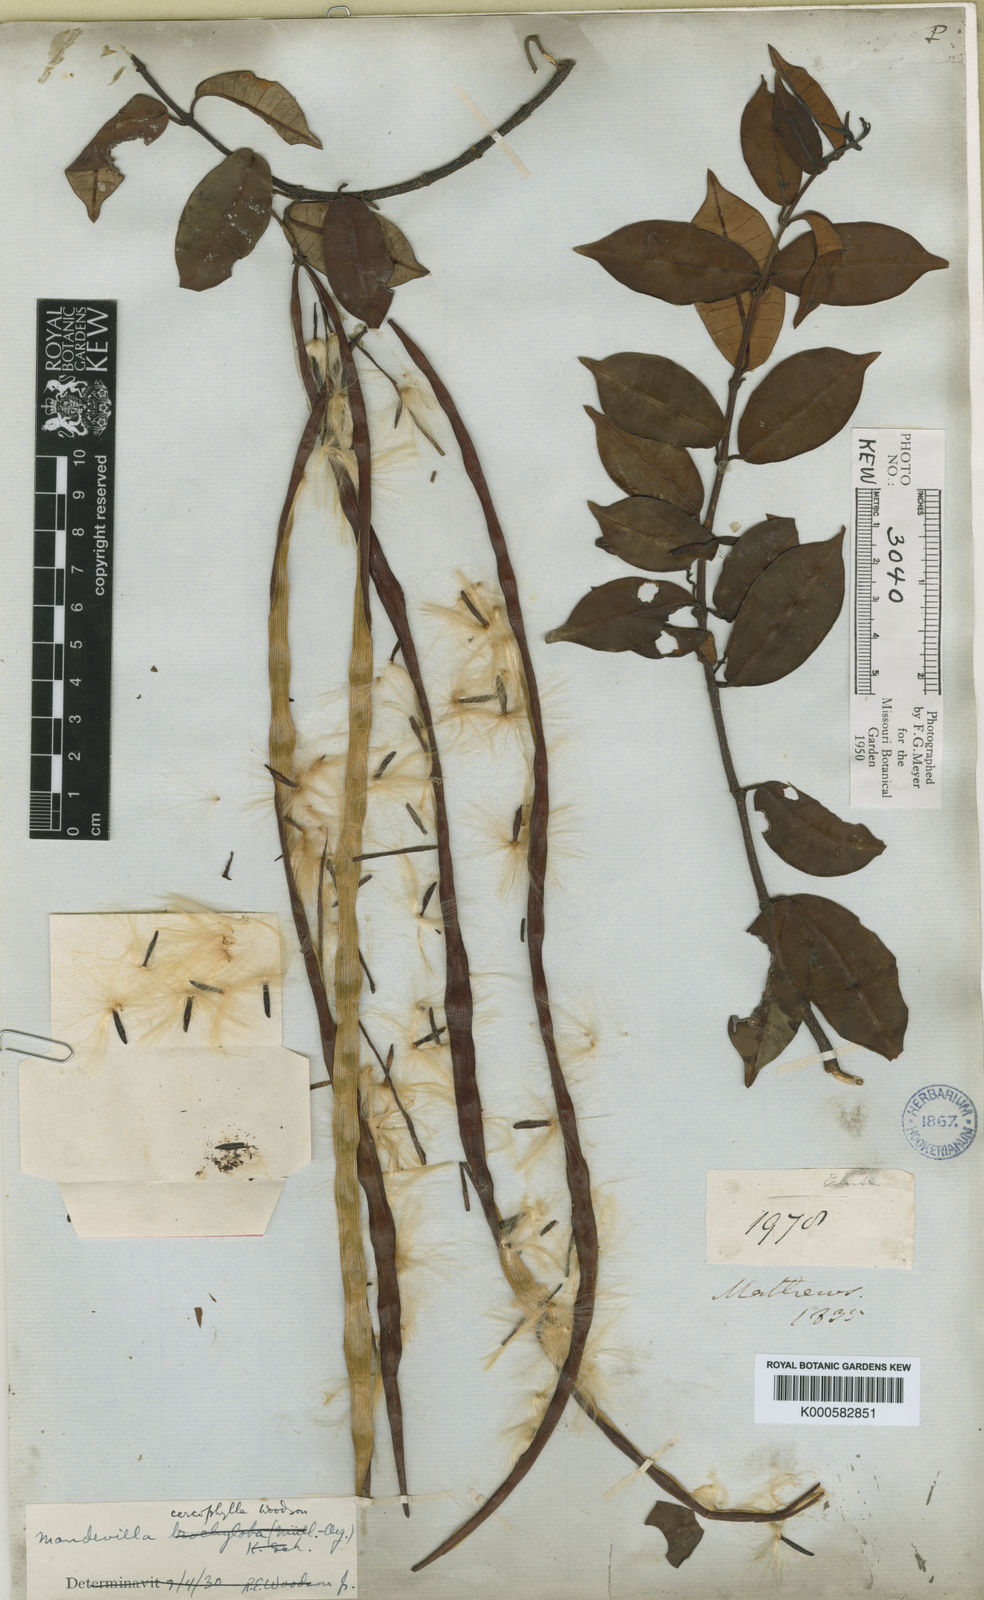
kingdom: Plantae
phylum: Tracheophyta
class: Magnoliopsida
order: Gentianales
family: Apocynaceae
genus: Mandevilla
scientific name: Mandevilla cercophylla
